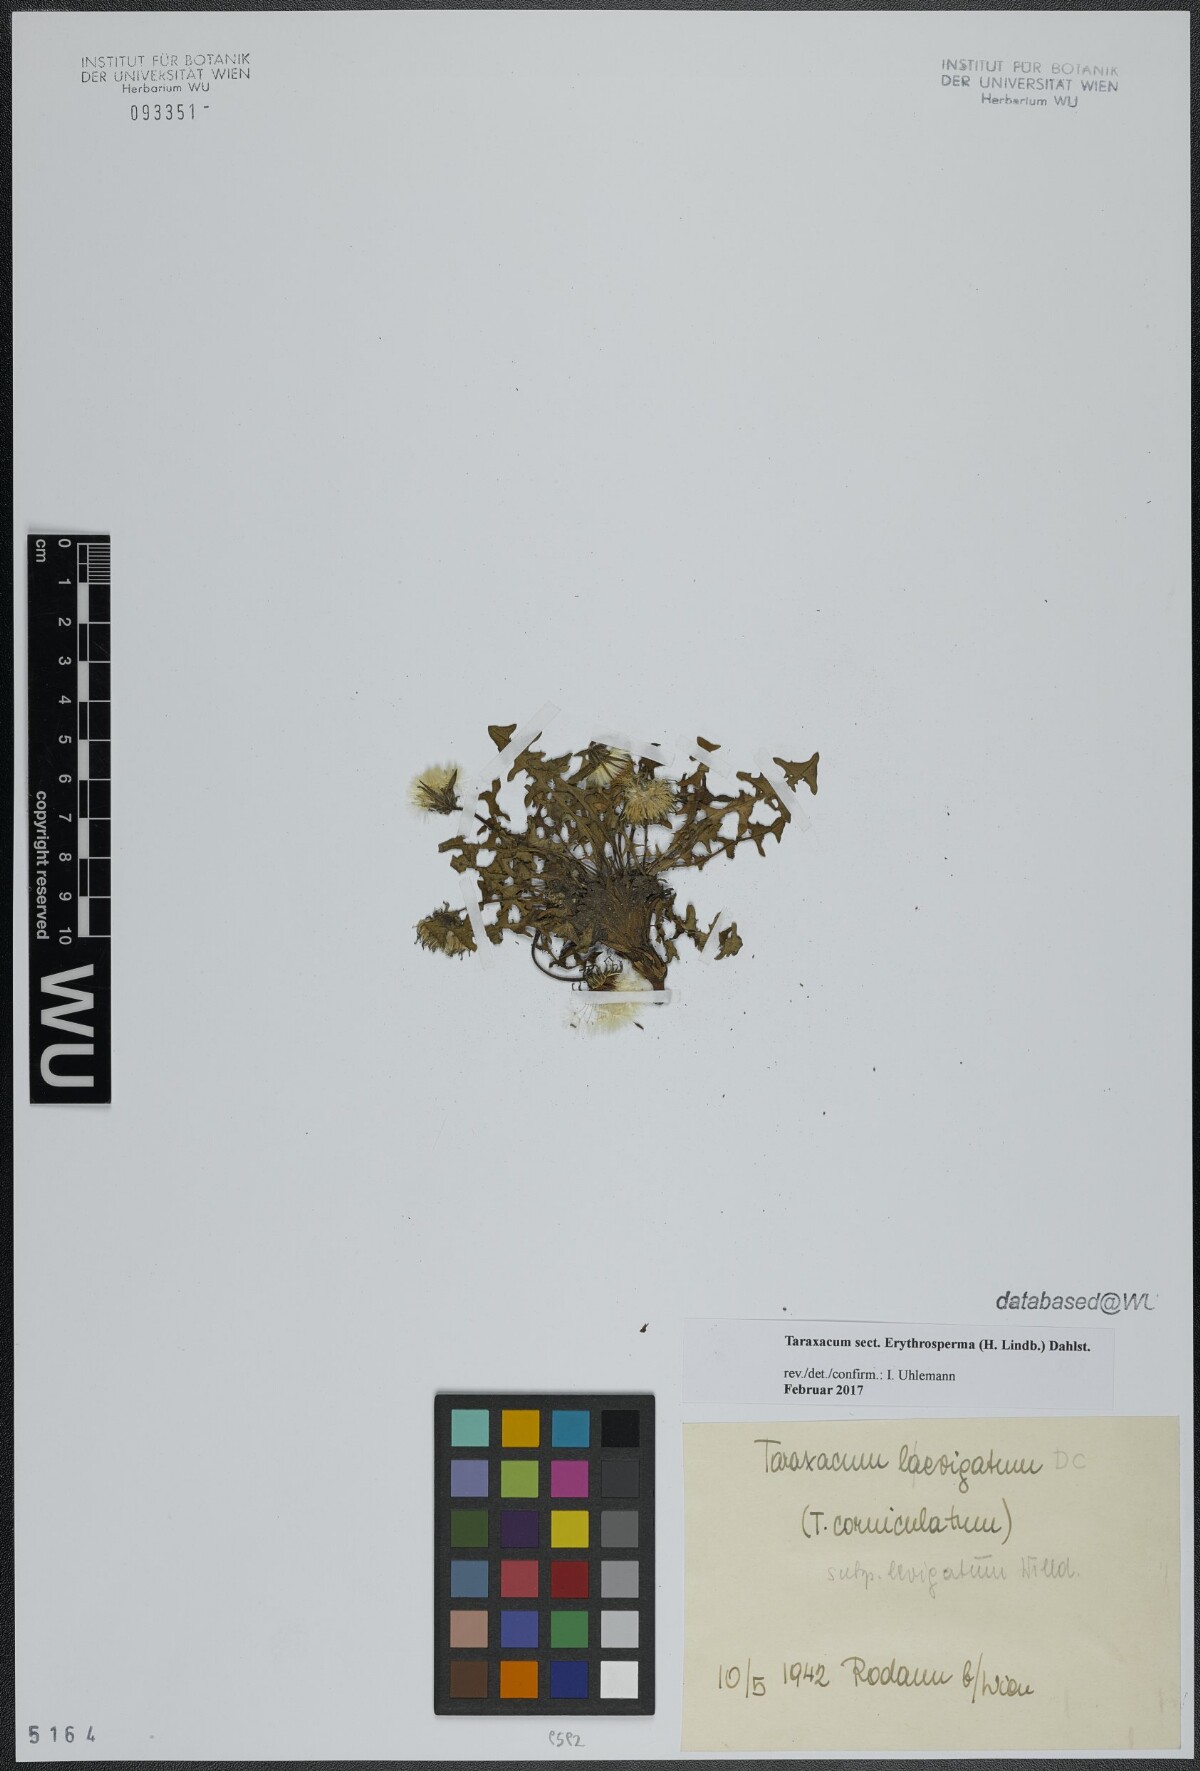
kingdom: Plantae
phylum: Tracheophyta
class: Magnoliopsida
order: Asterales
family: Asteraceae
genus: Taraxacum
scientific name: Taraxacum
